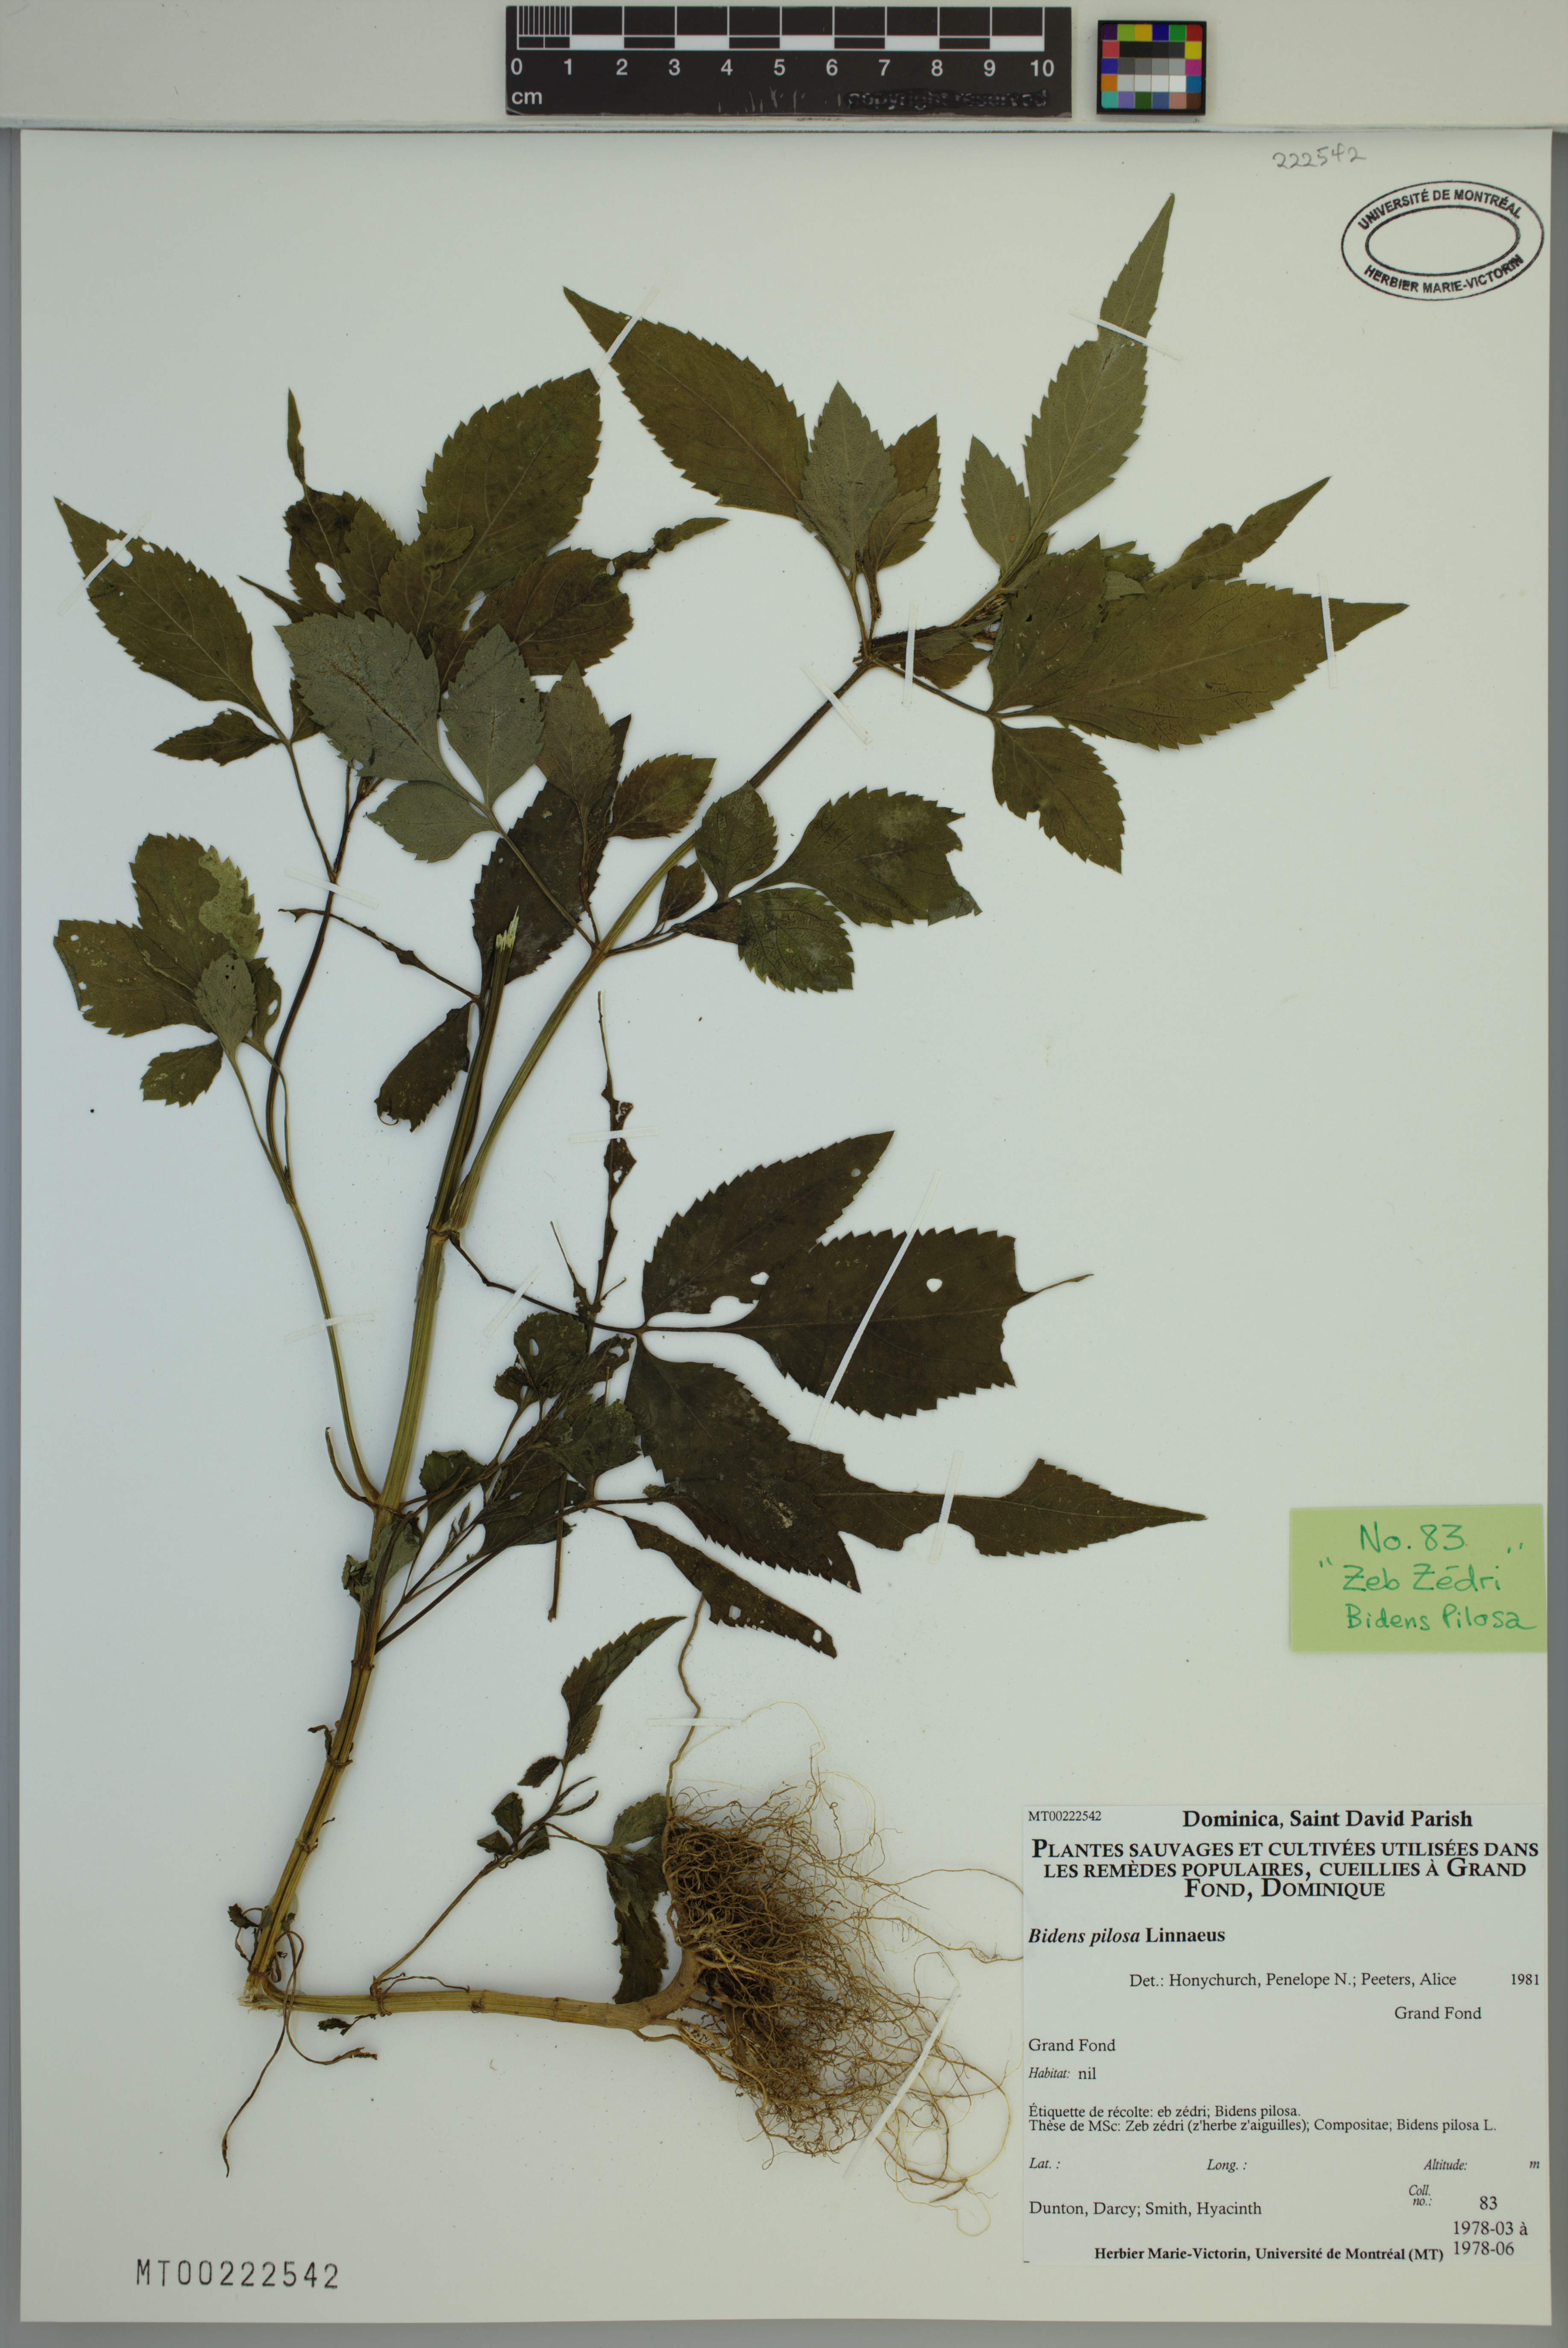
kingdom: Plantae
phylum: Tracheophyta
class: Magnoliopsida
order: Asterales
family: Asteraceae
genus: Bidens
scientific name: Bidens pilosa
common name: Black-jack
